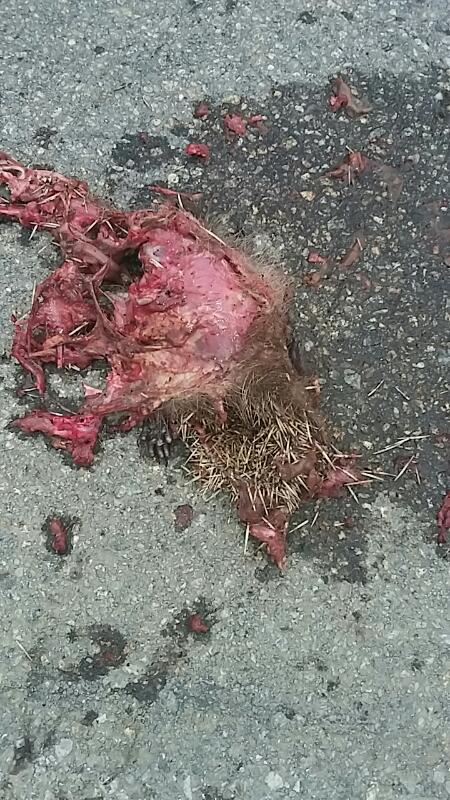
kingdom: Animalia
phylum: Chordata
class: Mammalia
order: Erinaceomorpha
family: Erinaceidae
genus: Erinaceus
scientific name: Erinaceus
